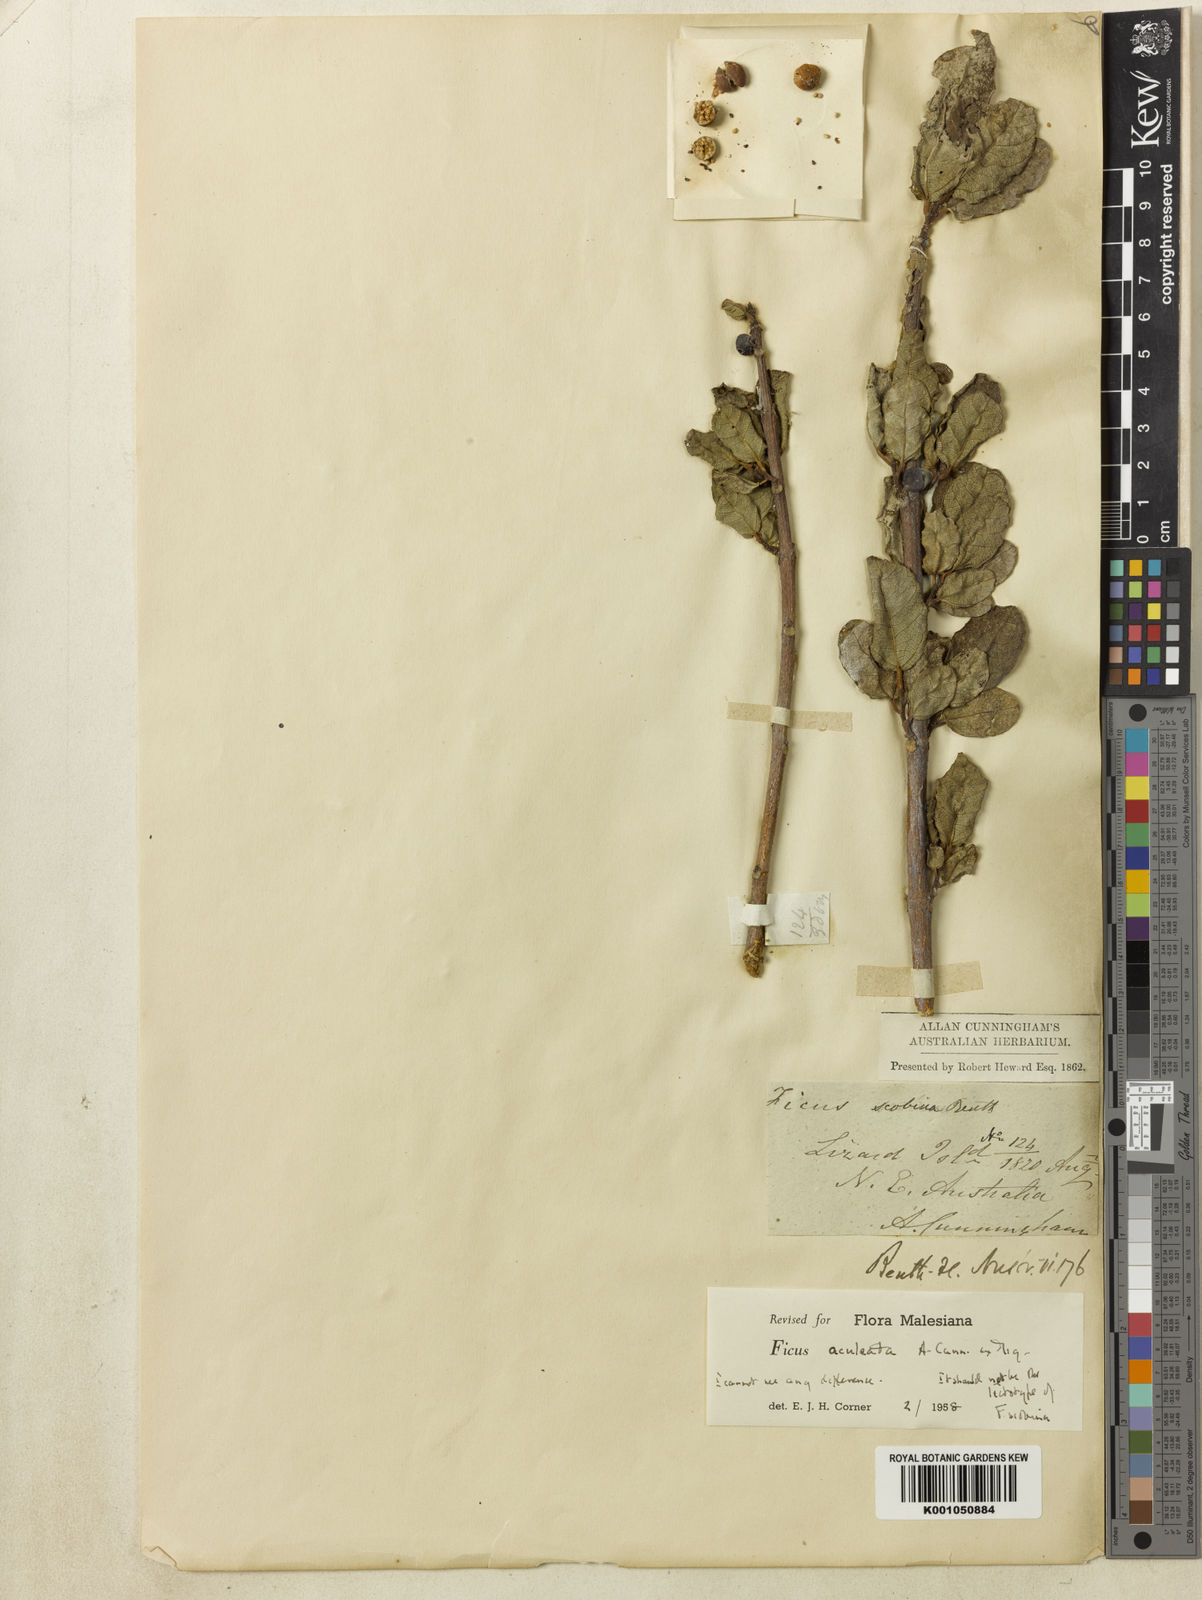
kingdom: Plantae
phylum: Tracheophyta
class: Magnoliopsida
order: Rosales
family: Moraceae
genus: Ficus
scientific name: Ficus opposita
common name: Figwood
